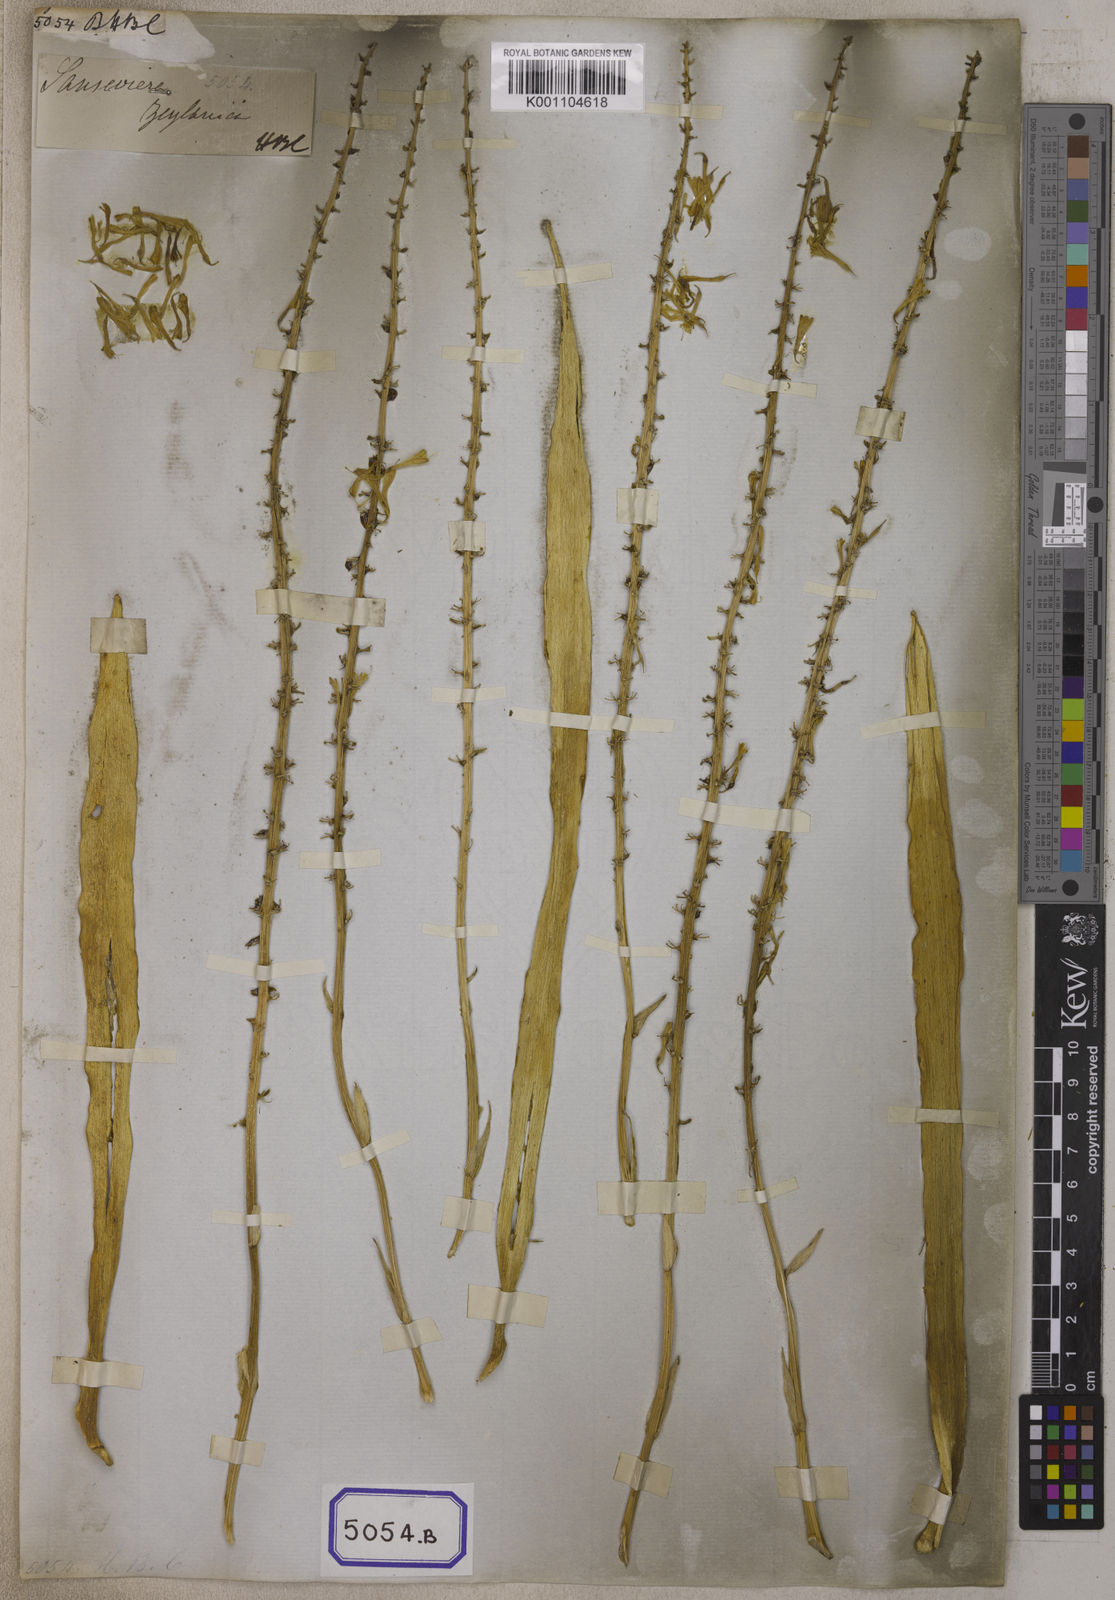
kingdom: Plantae
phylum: Tracheophyta
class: Liliopsida
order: Asparagales
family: Asparagaceae
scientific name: Asparagaceae
